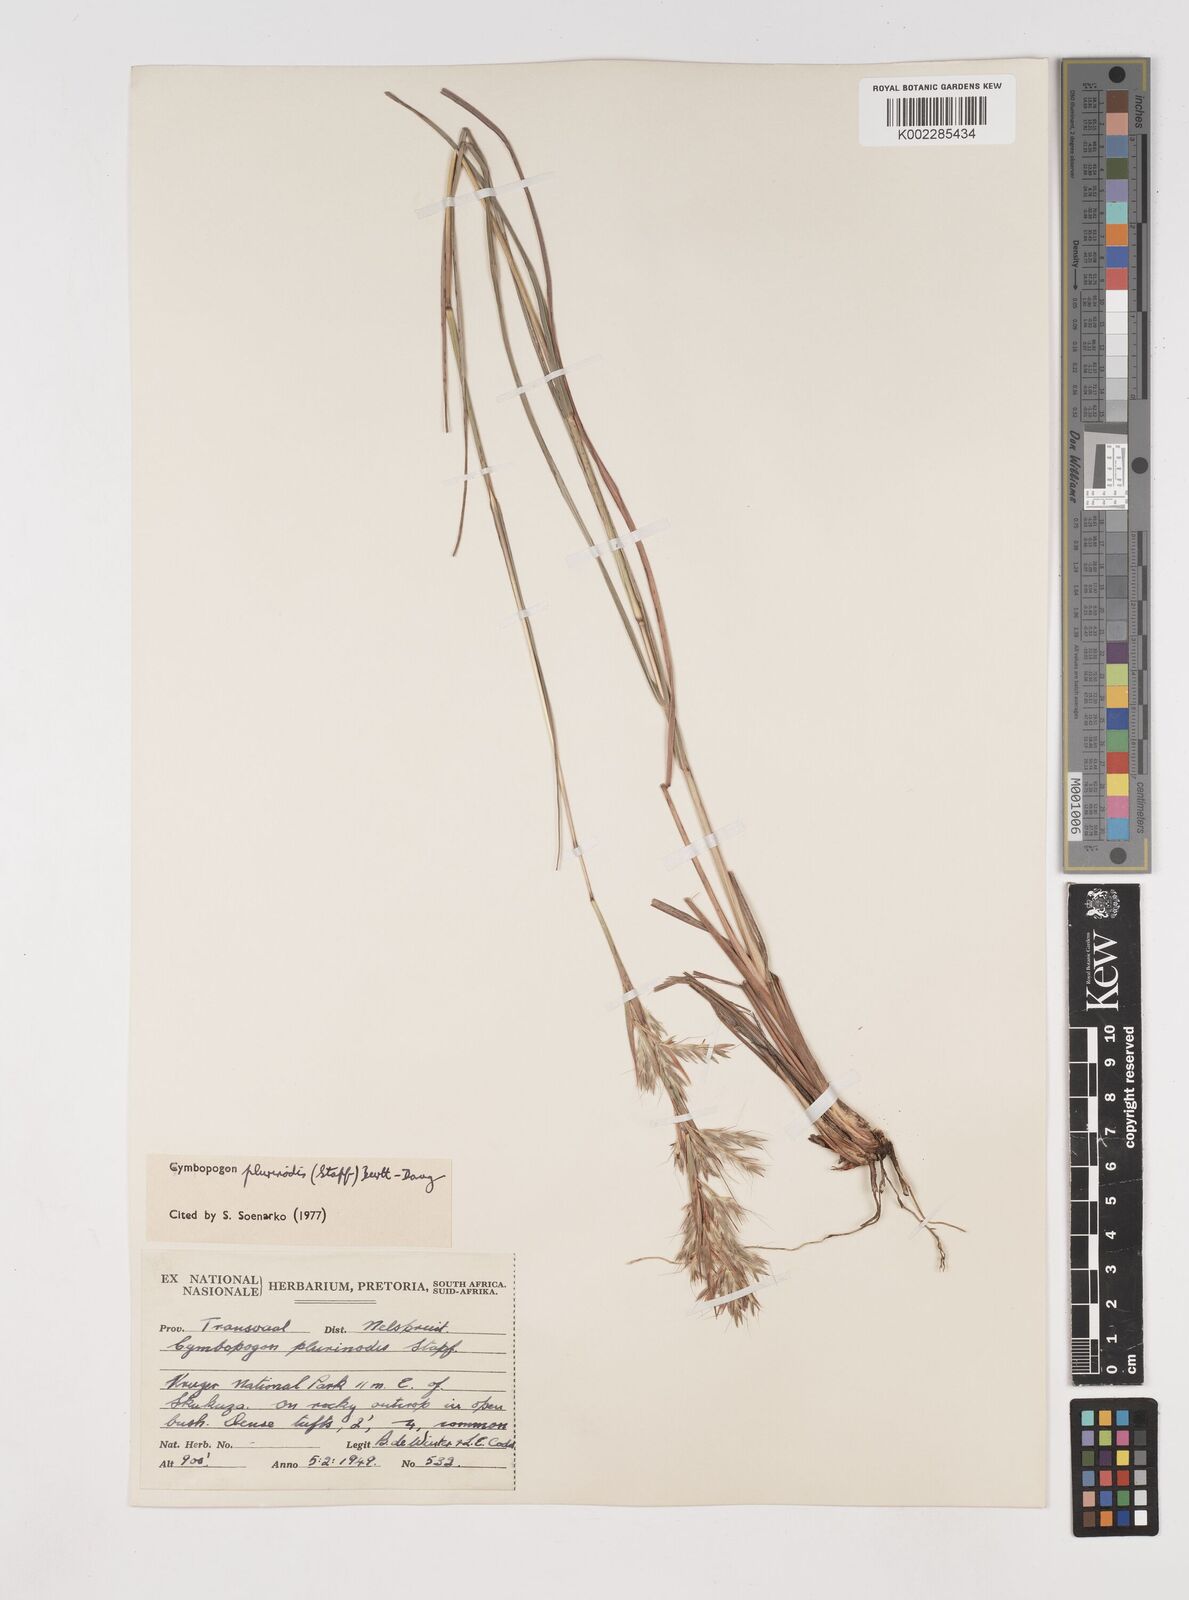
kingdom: Plantae
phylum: Tracheophyta
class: Liliopsida
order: Poales
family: Poaceae
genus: Cymbopogon
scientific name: Cymbopogon
